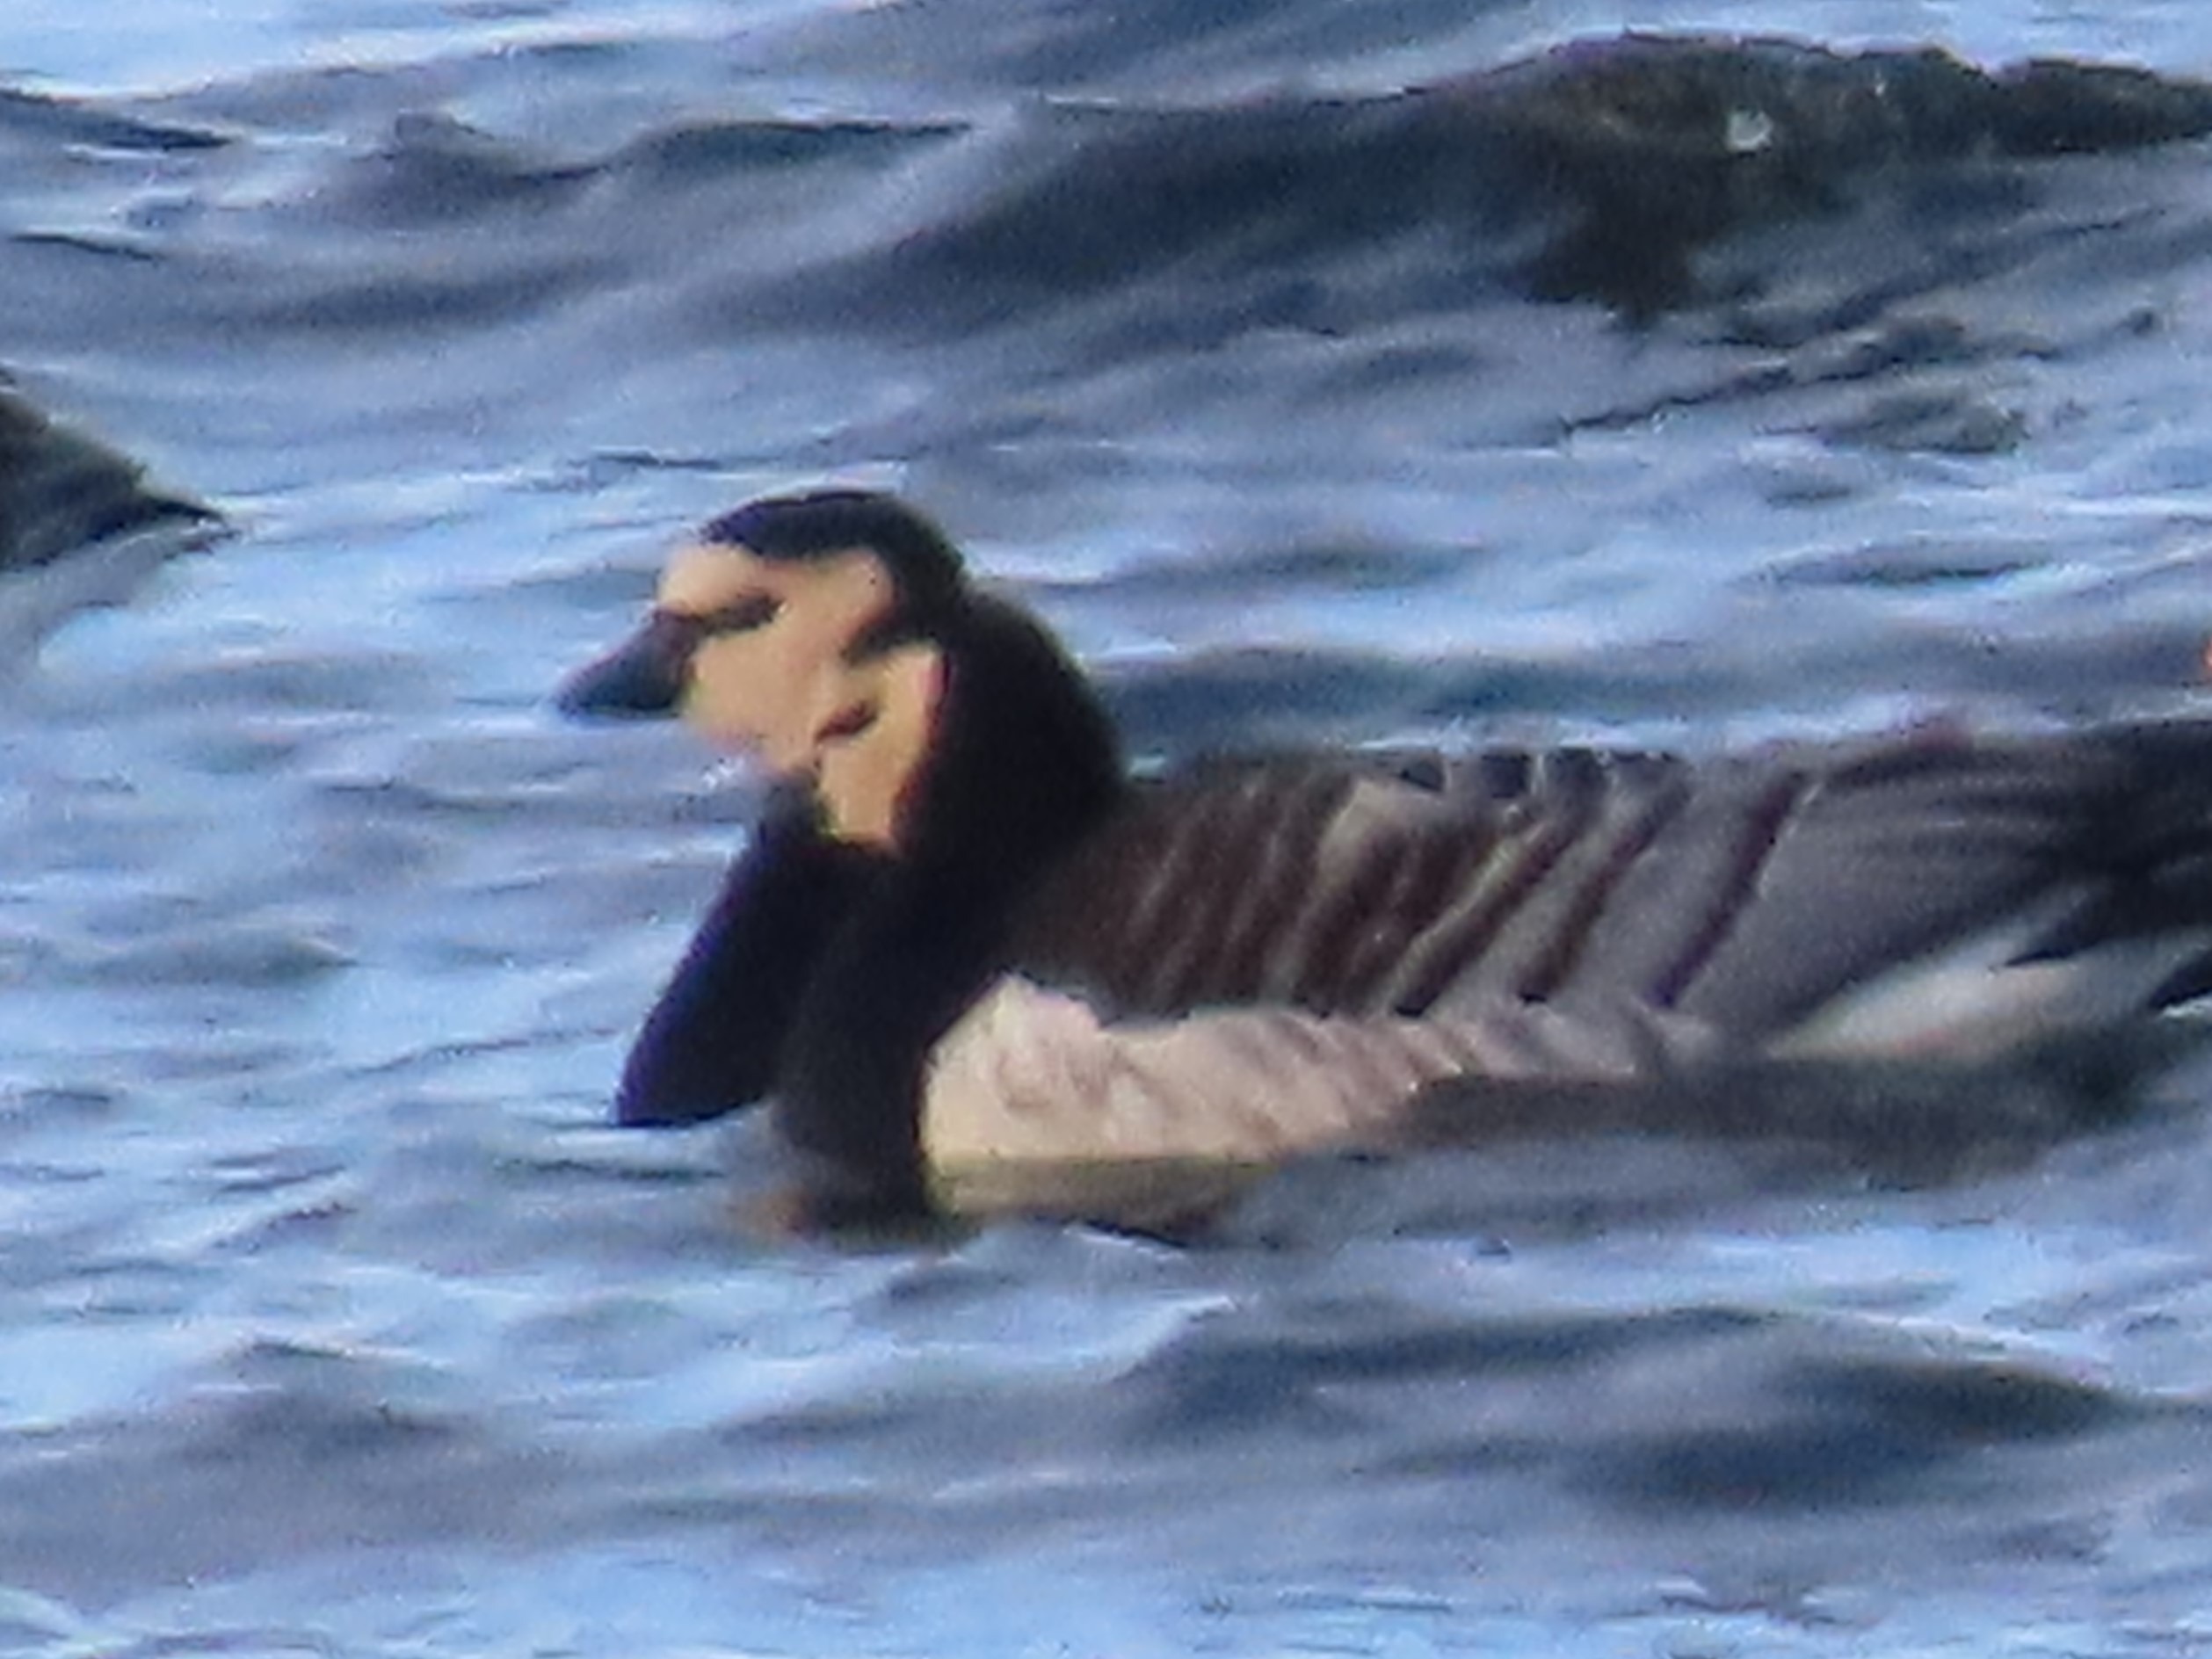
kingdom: Animalia
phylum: Chordata
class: Aves
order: Anseriformes
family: Anatidae
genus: Branta
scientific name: Branta leucopsis
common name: Bramgås
